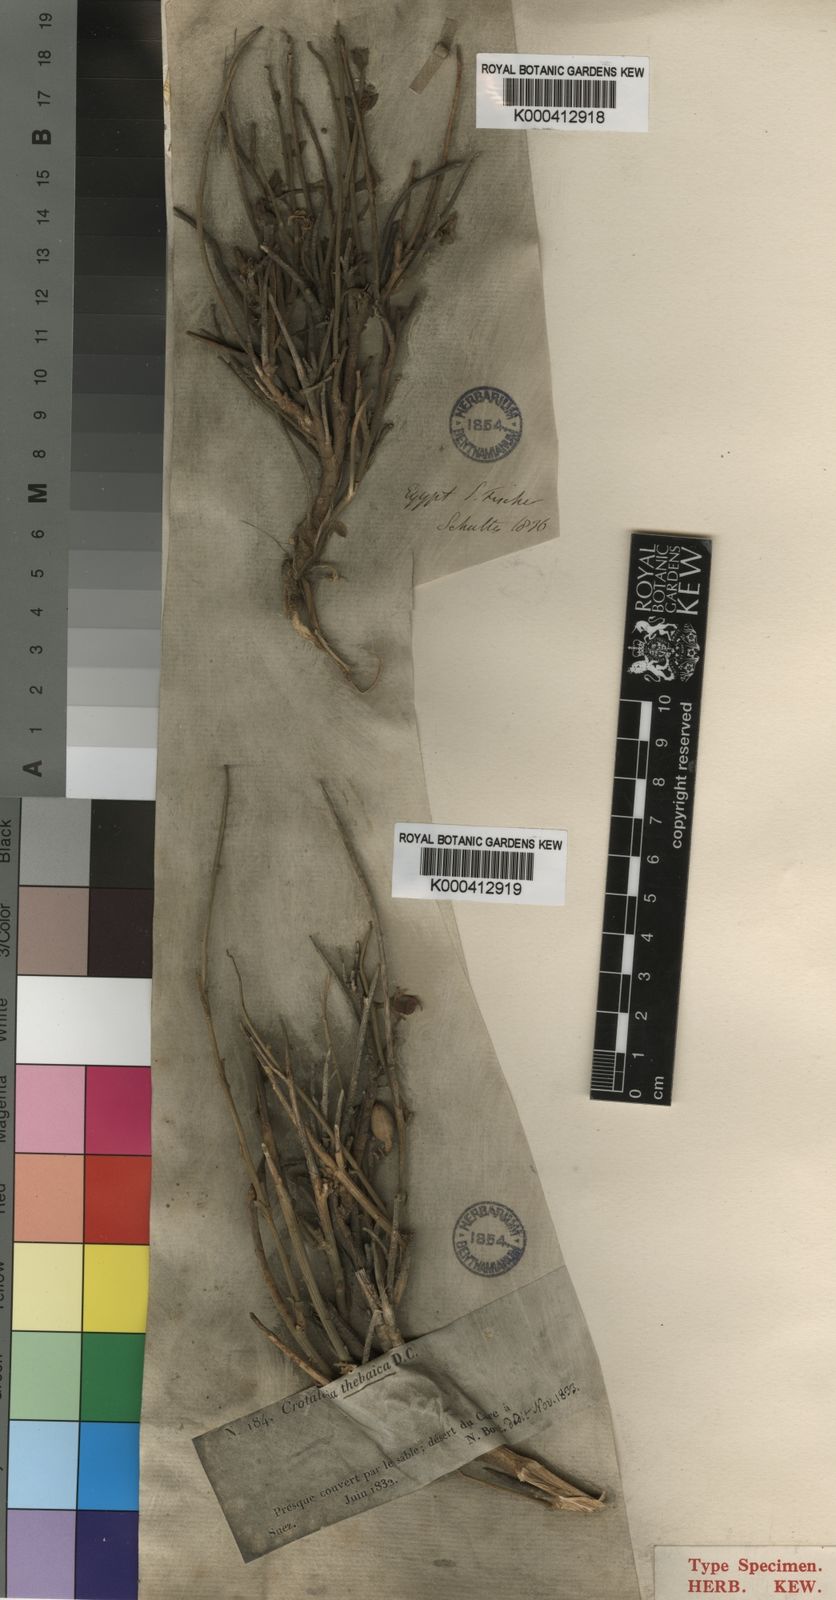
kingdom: Plantae
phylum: Tracheophyta
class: Magnoliopsida
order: Fabales
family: Fabaceae
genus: Crotalaria
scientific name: Crotalaria aegyptiaca
